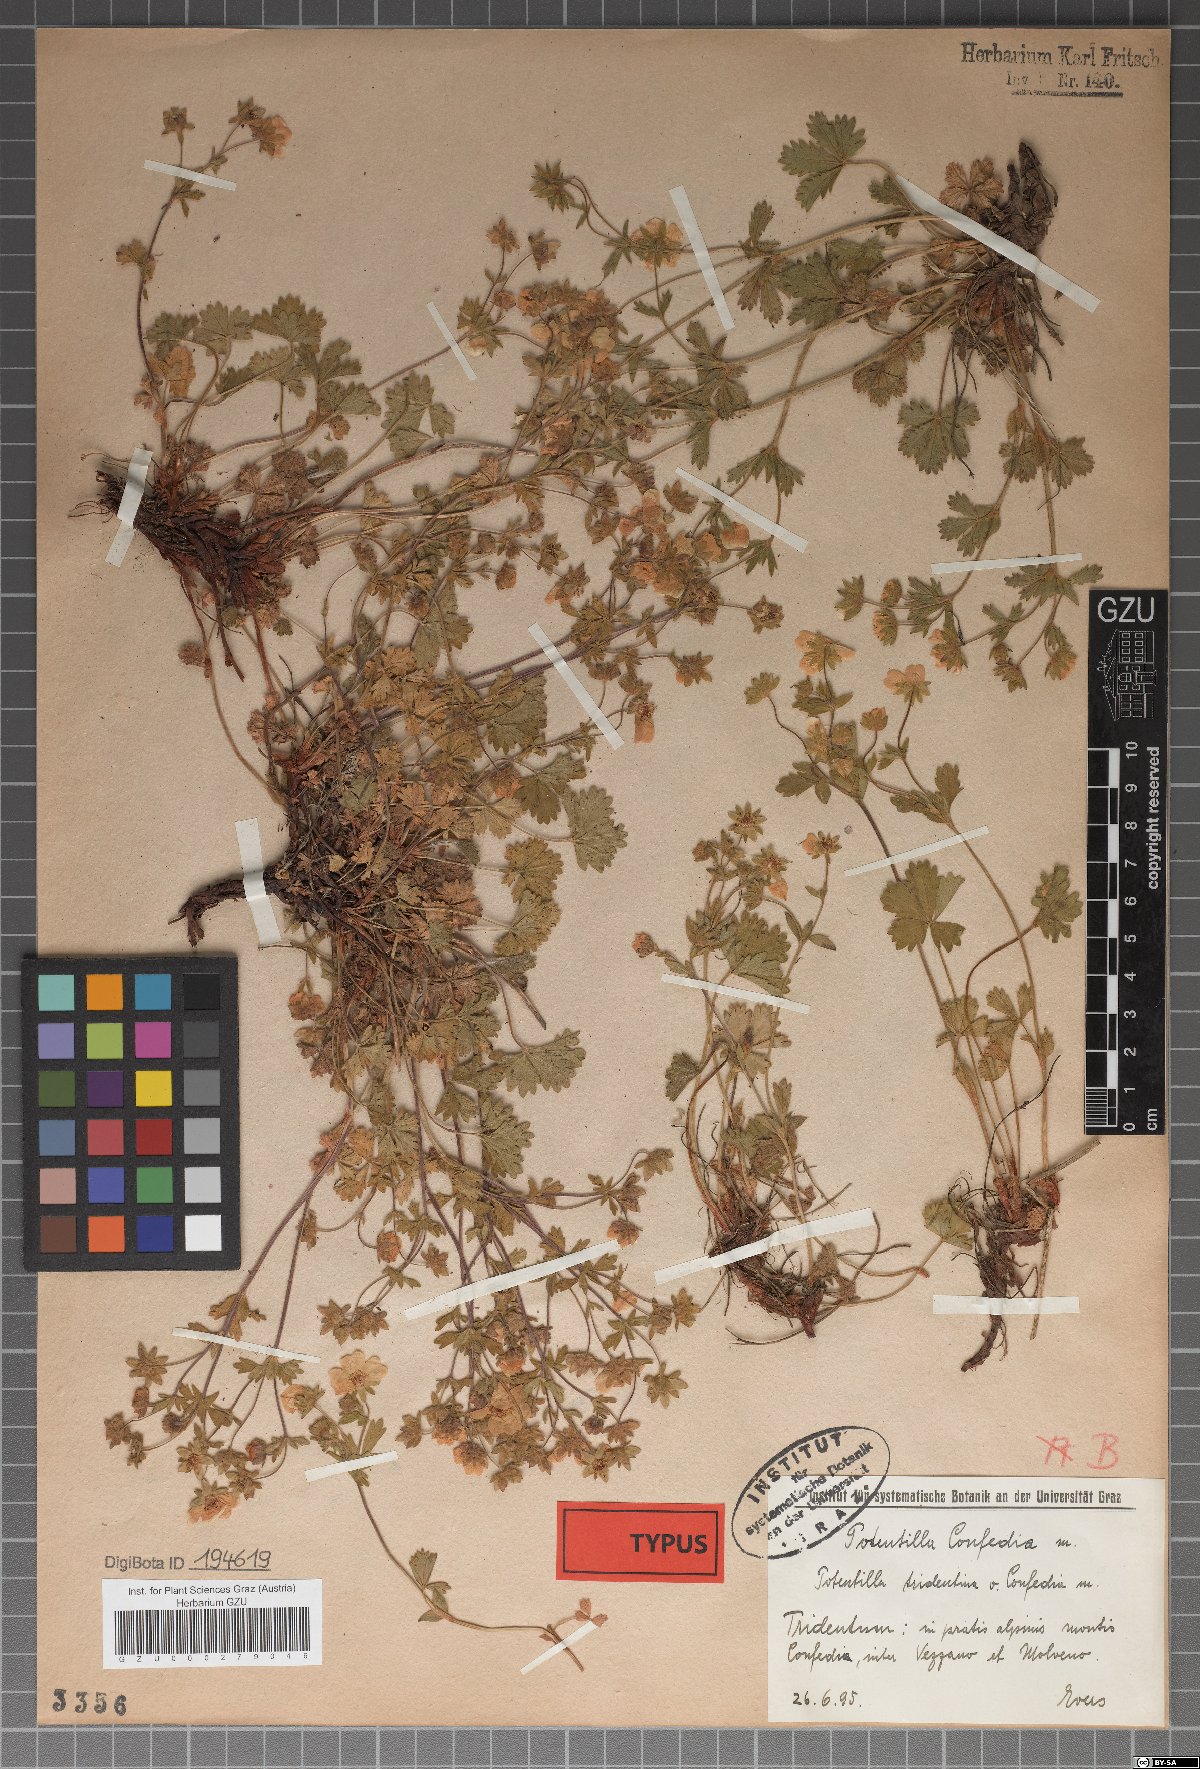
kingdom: Plantae
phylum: Tracheophyta
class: Magnoliopsida
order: Rosales
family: Rosaceae
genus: Potentilla
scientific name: Potentilla crantzii
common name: Alpine cinquefoil
